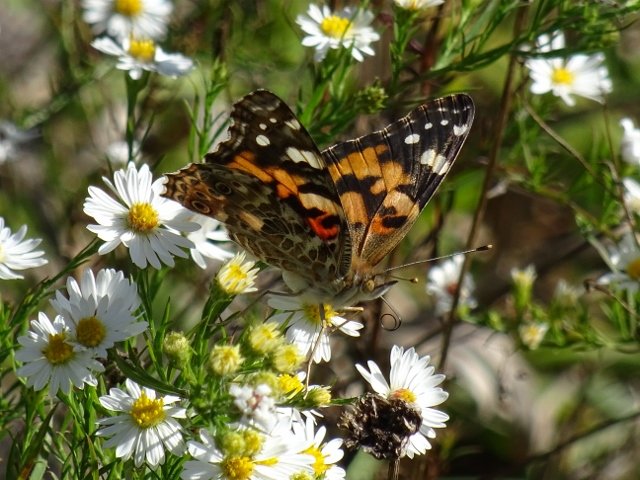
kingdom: Animalia
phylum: Arthropoda
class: Insecta
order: Lepidoptera
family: Nymphalidae
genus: Vanessa
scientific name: Vanessa cardui
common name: Painted Lady
